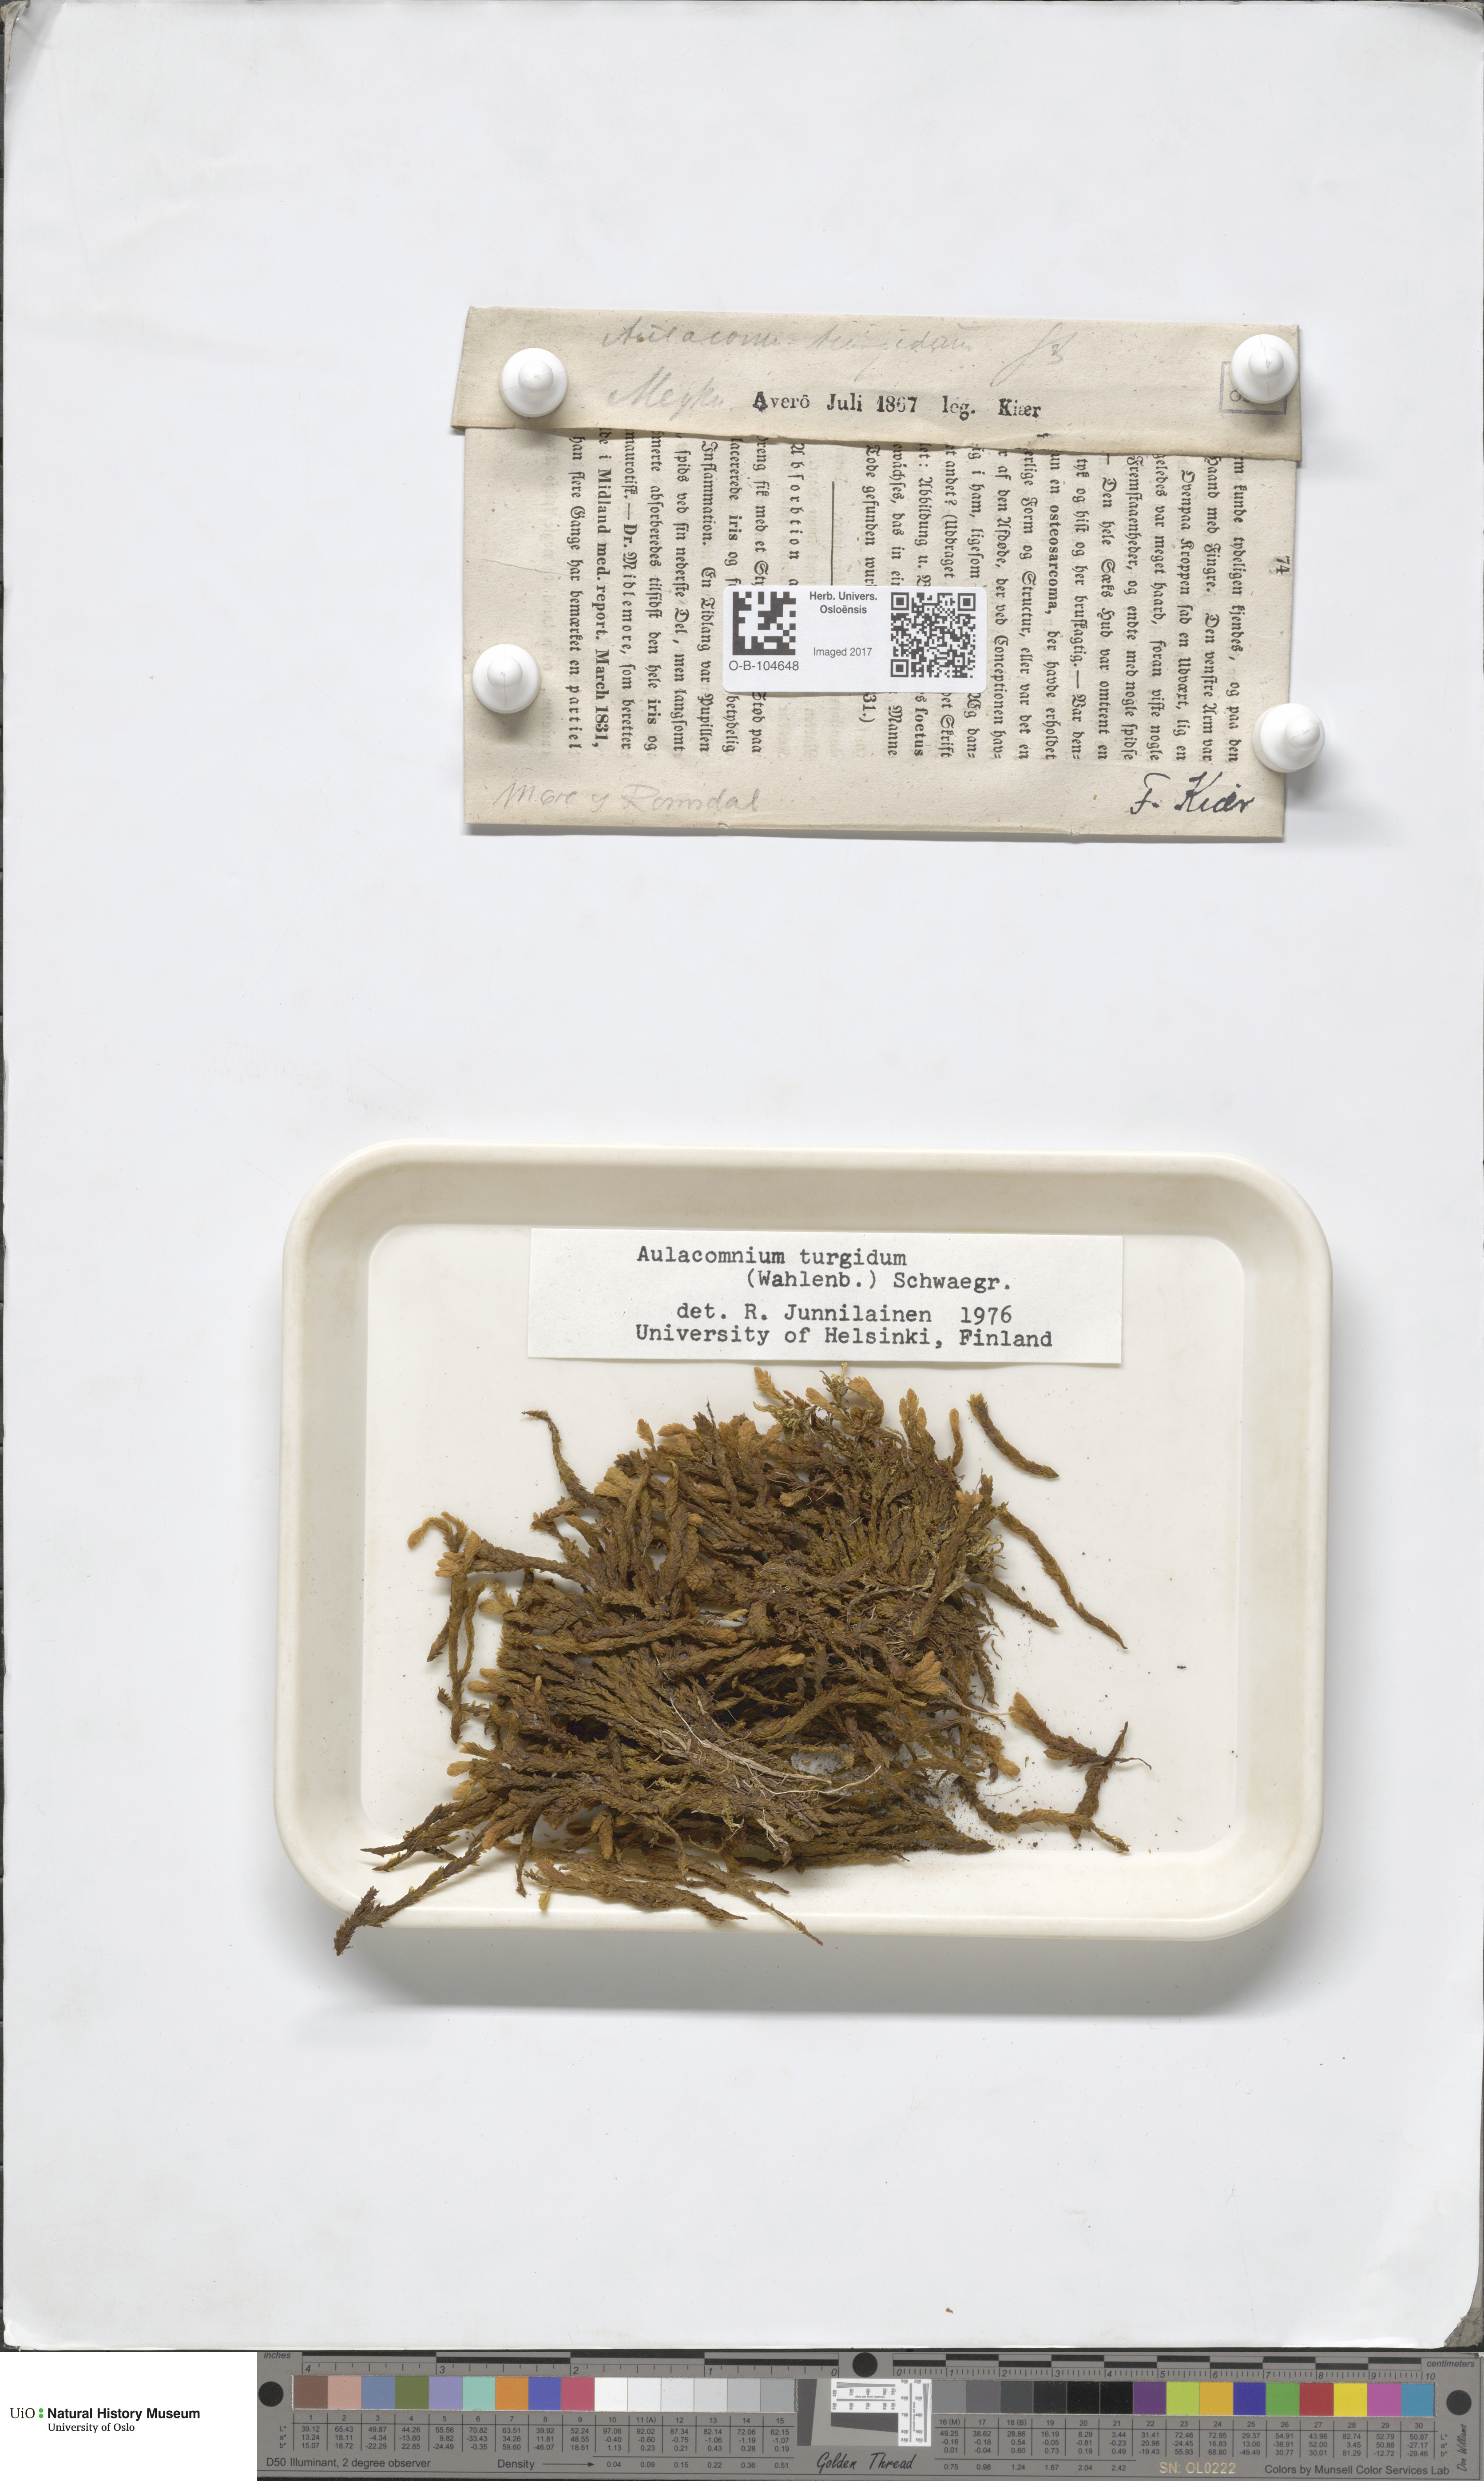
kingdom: Plantae
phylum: Bryophyta
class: Bryopsida
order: Aulacomniales
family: Aulacomniaceae
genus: Aulacomnium
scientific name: Aulacomnium turgidum
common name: Mountain groove moss
